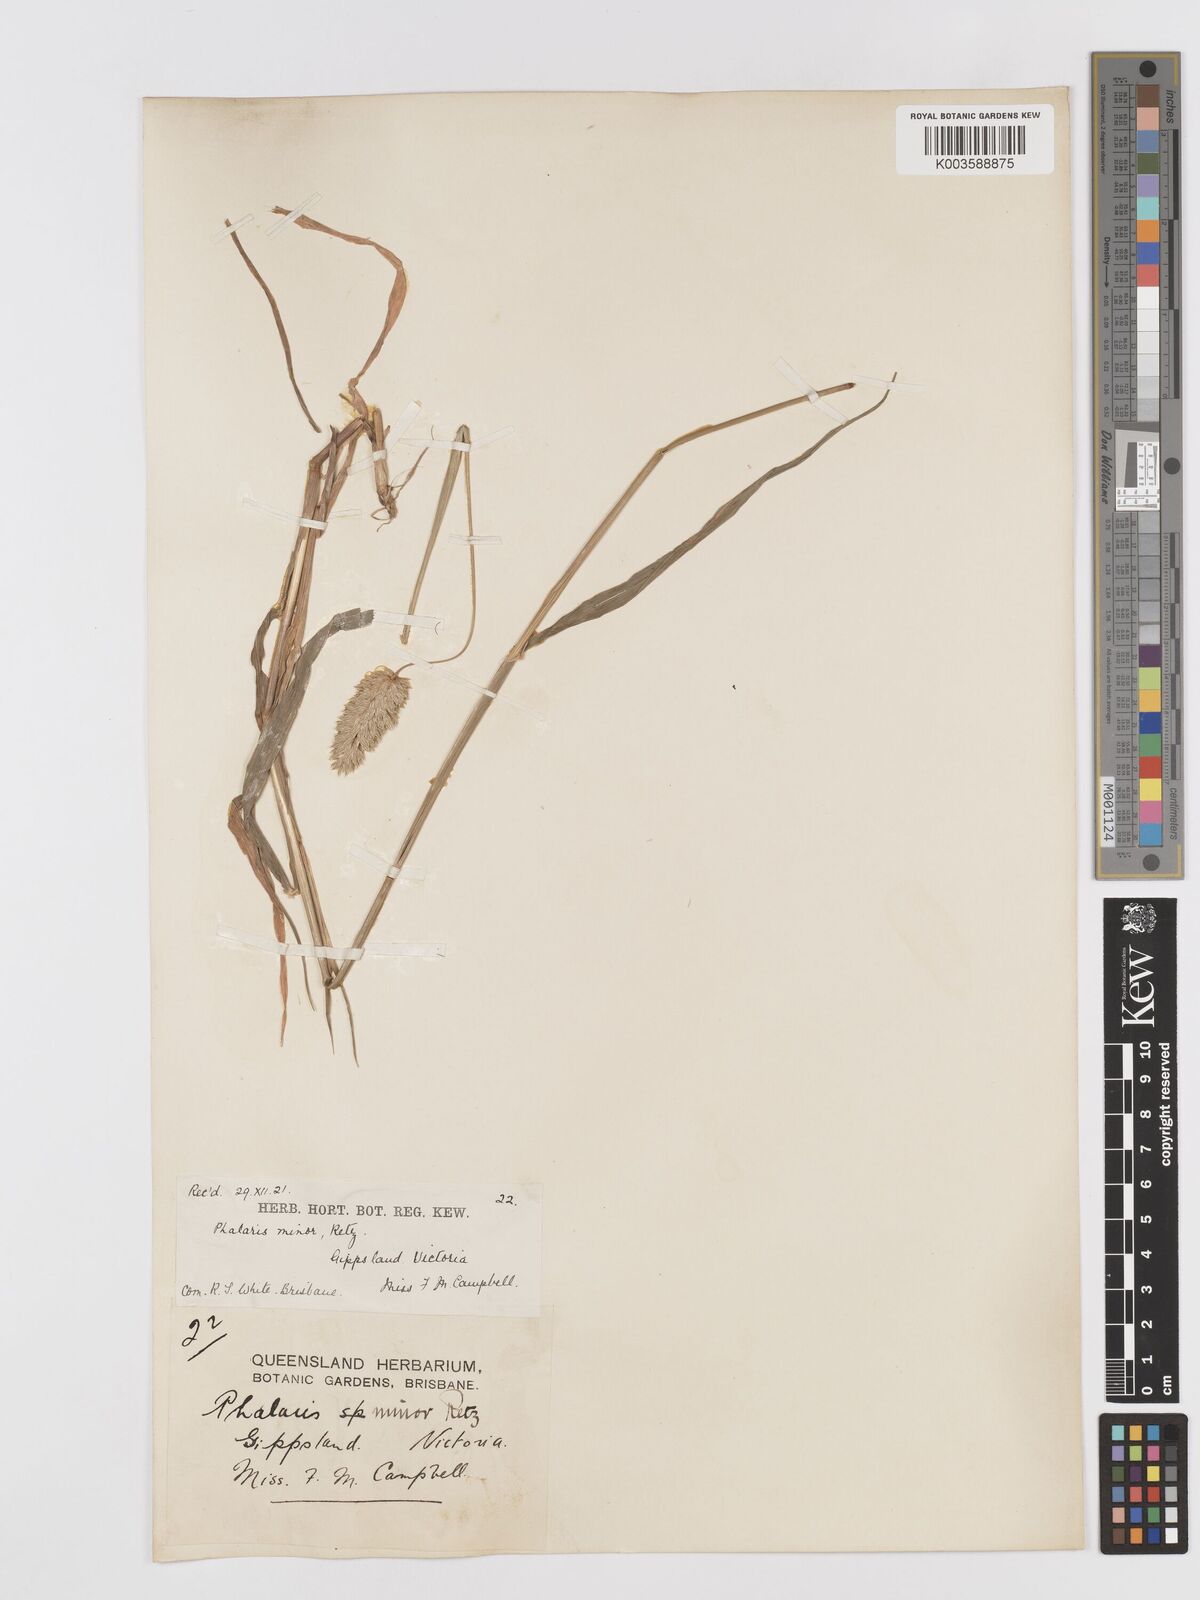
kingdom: Plantae
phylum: Tracheophyta
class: Liliopsida
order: Poales
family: Poaceae
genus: Phalaris
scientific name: Phalaris minor
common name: Littleseed canarygrass
